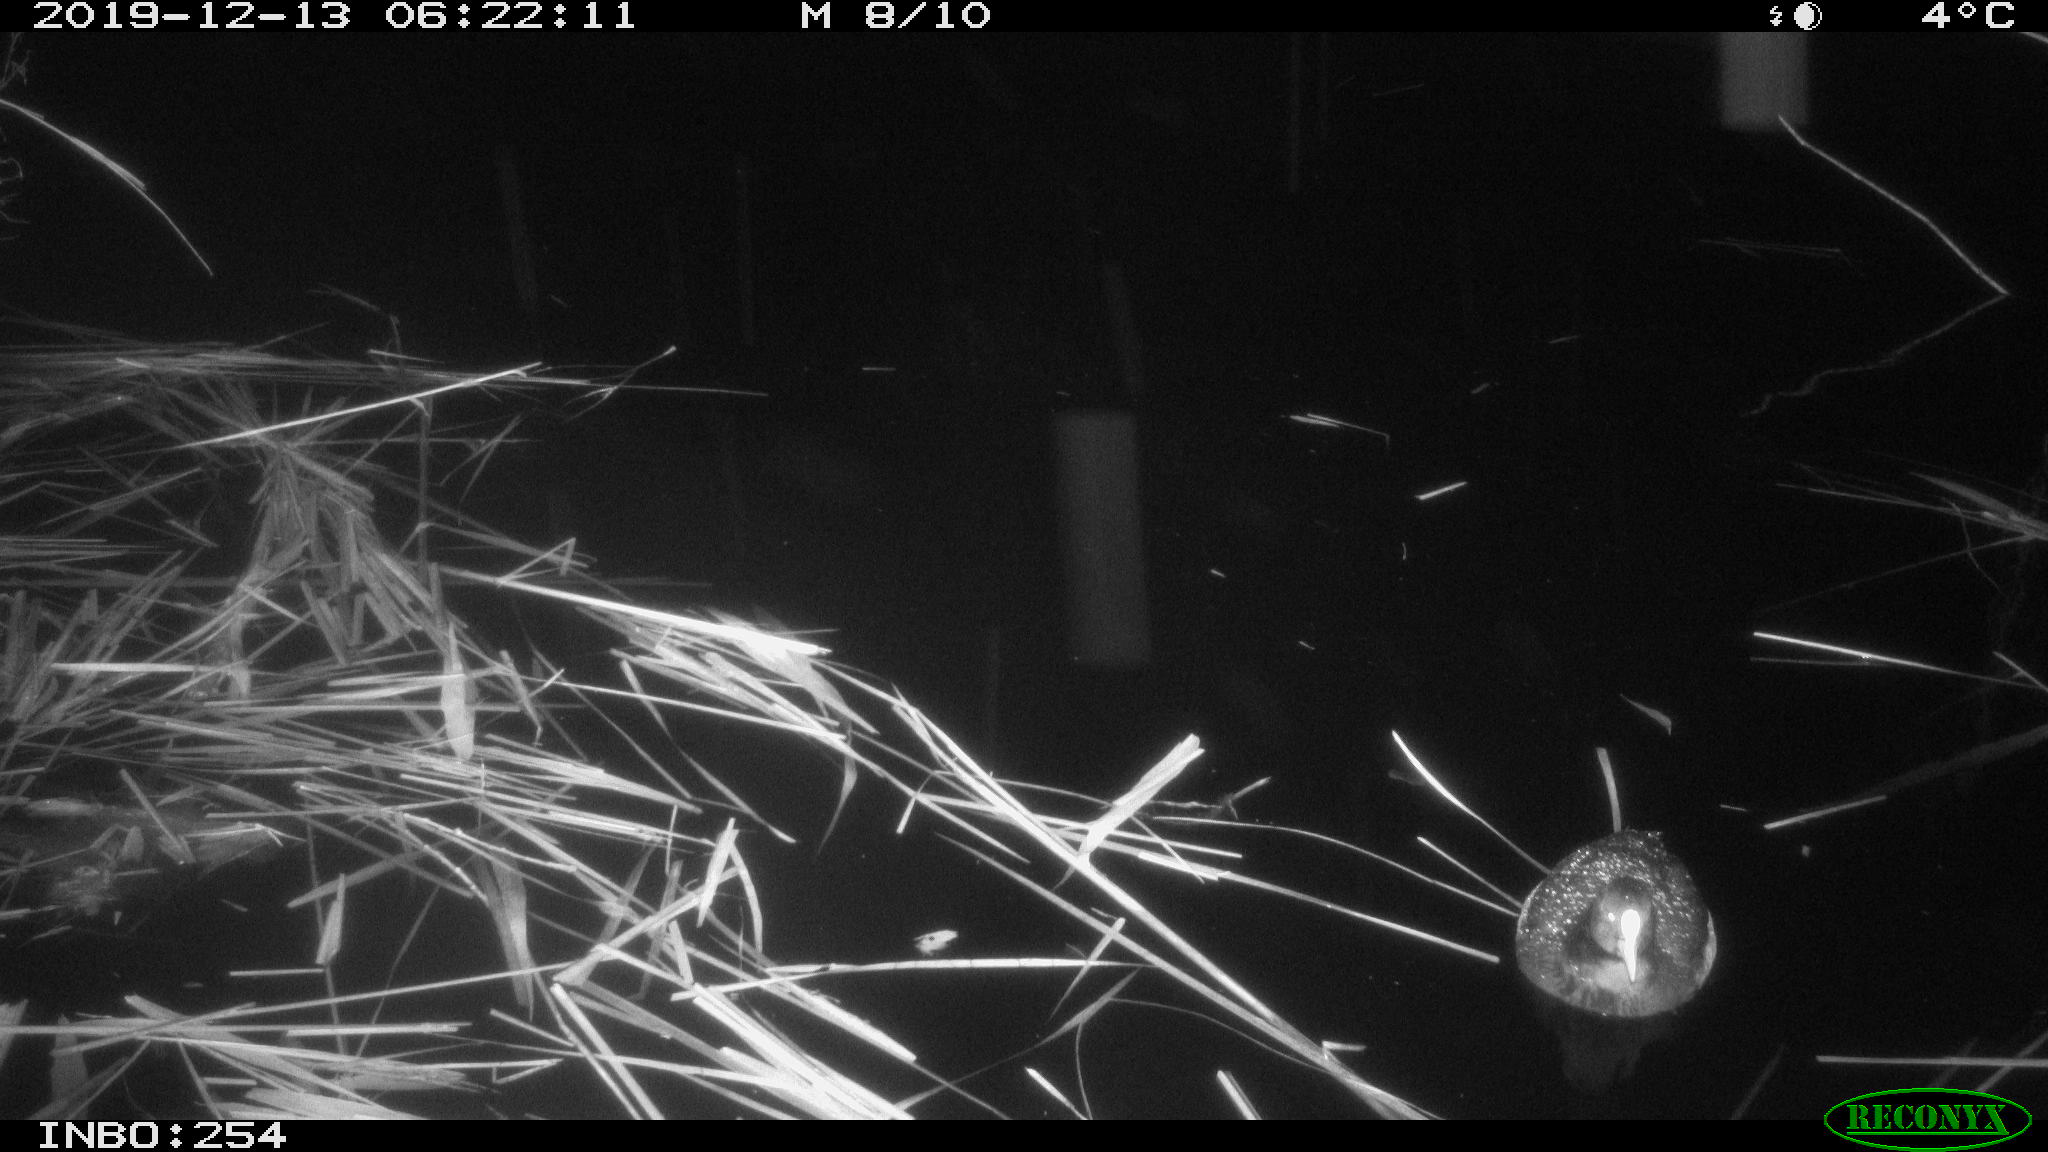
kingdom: Animalia
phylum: Chordata
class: Aves
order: Gruiformes
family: Rallidae
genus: Fulica
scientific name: Fulica atra
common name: Eurasian coot
